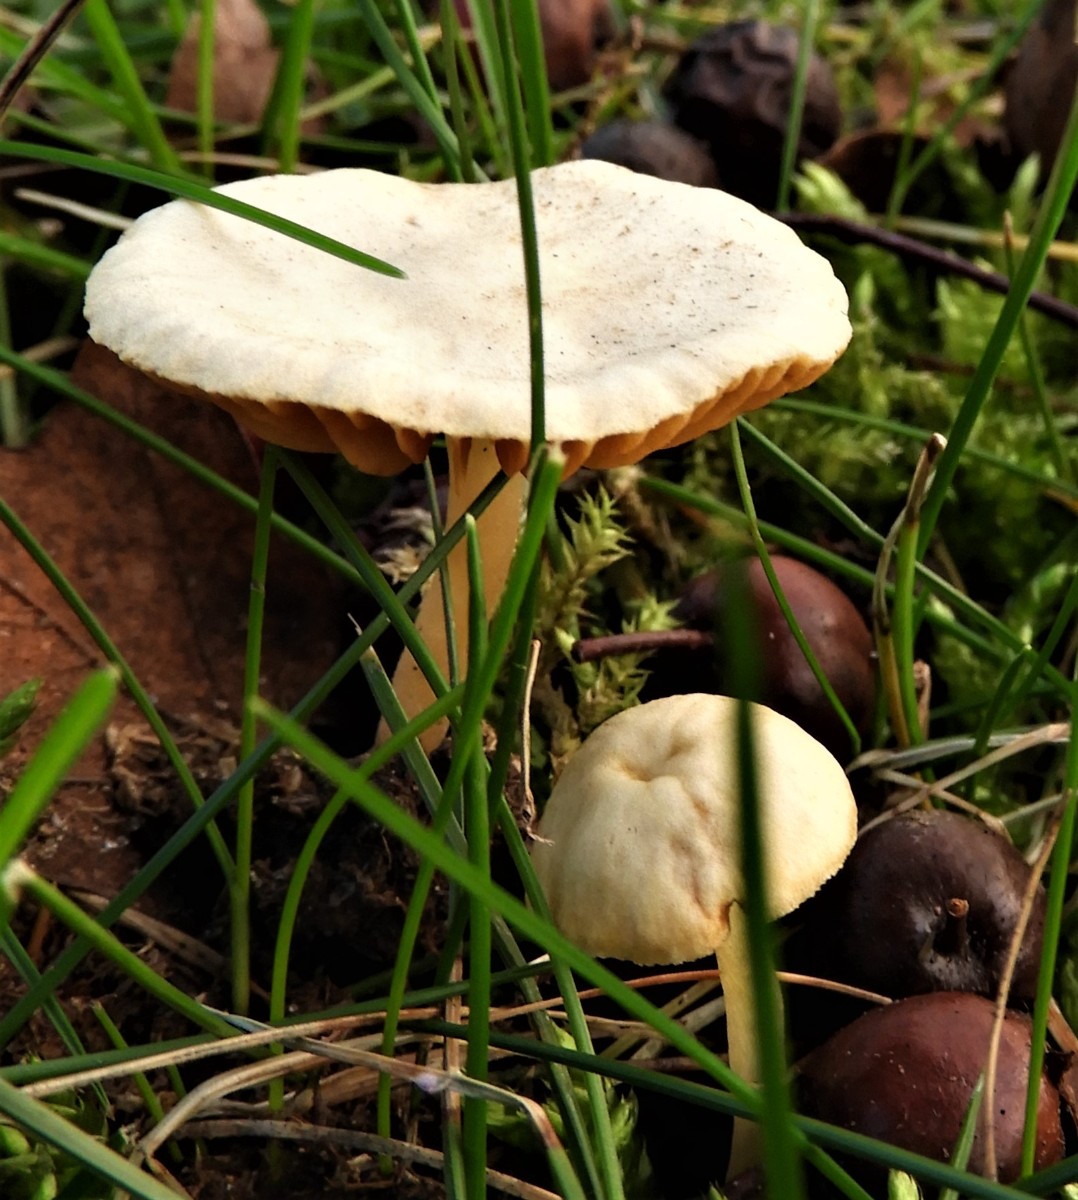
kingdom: Fungi
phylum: Basidiomycota
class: Agaricomycetes
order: Agaricales
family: Tubariaceae
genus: Tubaria
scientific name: Tubaria furfuracea
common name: kliddet fnughat
